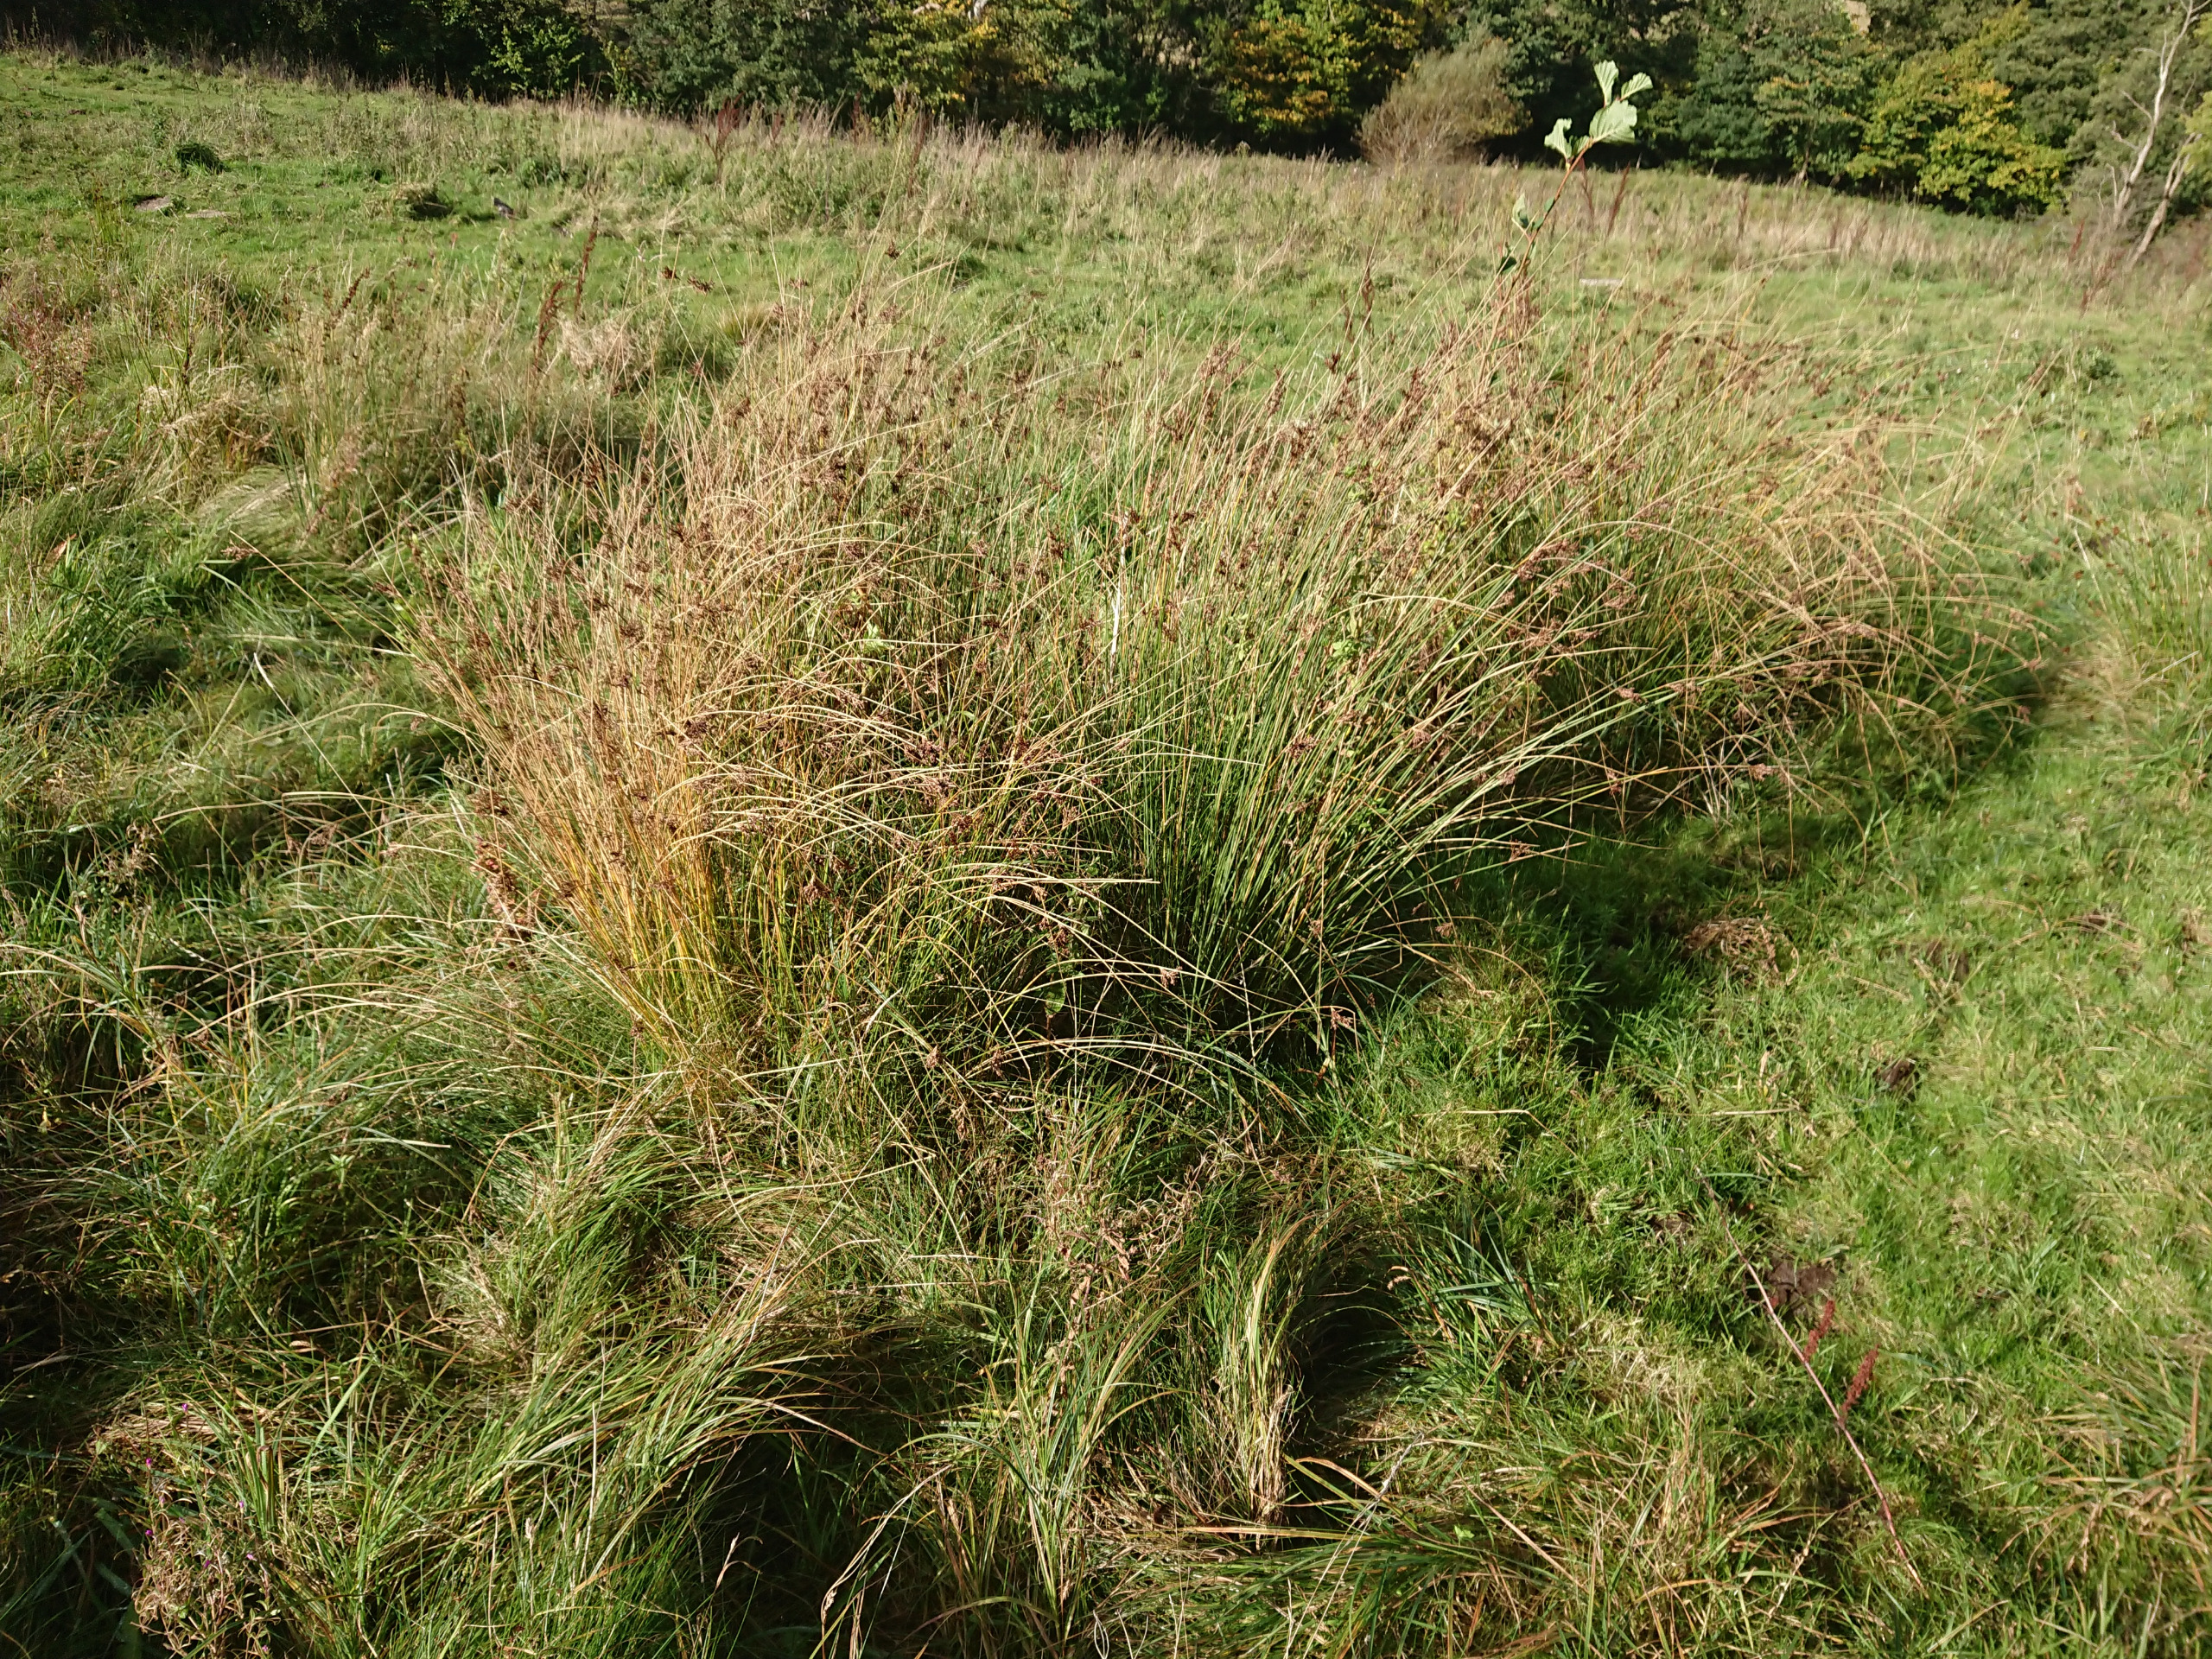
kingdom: Plantae
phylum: Tracheophyta
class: Liliopsida
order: Poales
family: Juncaceae
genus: Juncus
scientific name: Juncus inflexus
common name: Blågrå siv
